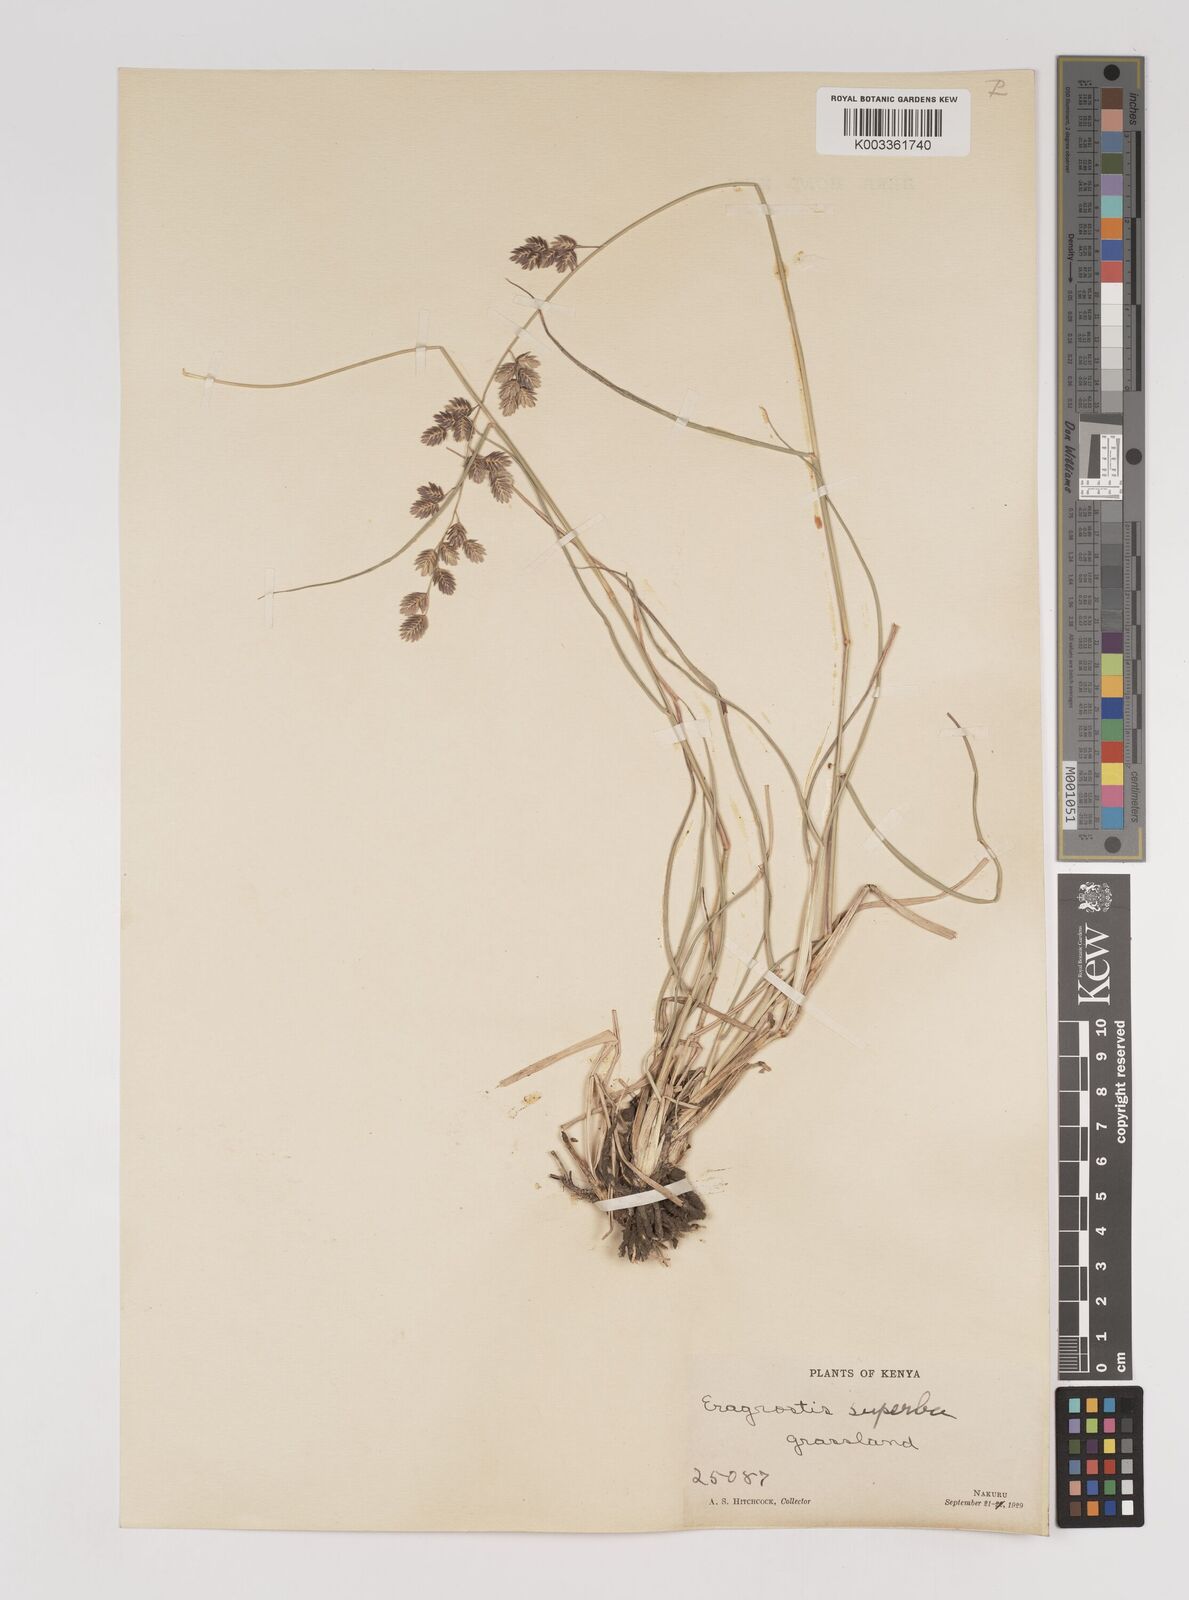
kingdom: Plantae
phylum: Tracheophyta
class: Liliopsida
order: Poales
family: Poaceae
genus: Eragrostis
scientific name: Eragrostis superba
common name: Wilman lovegrass
